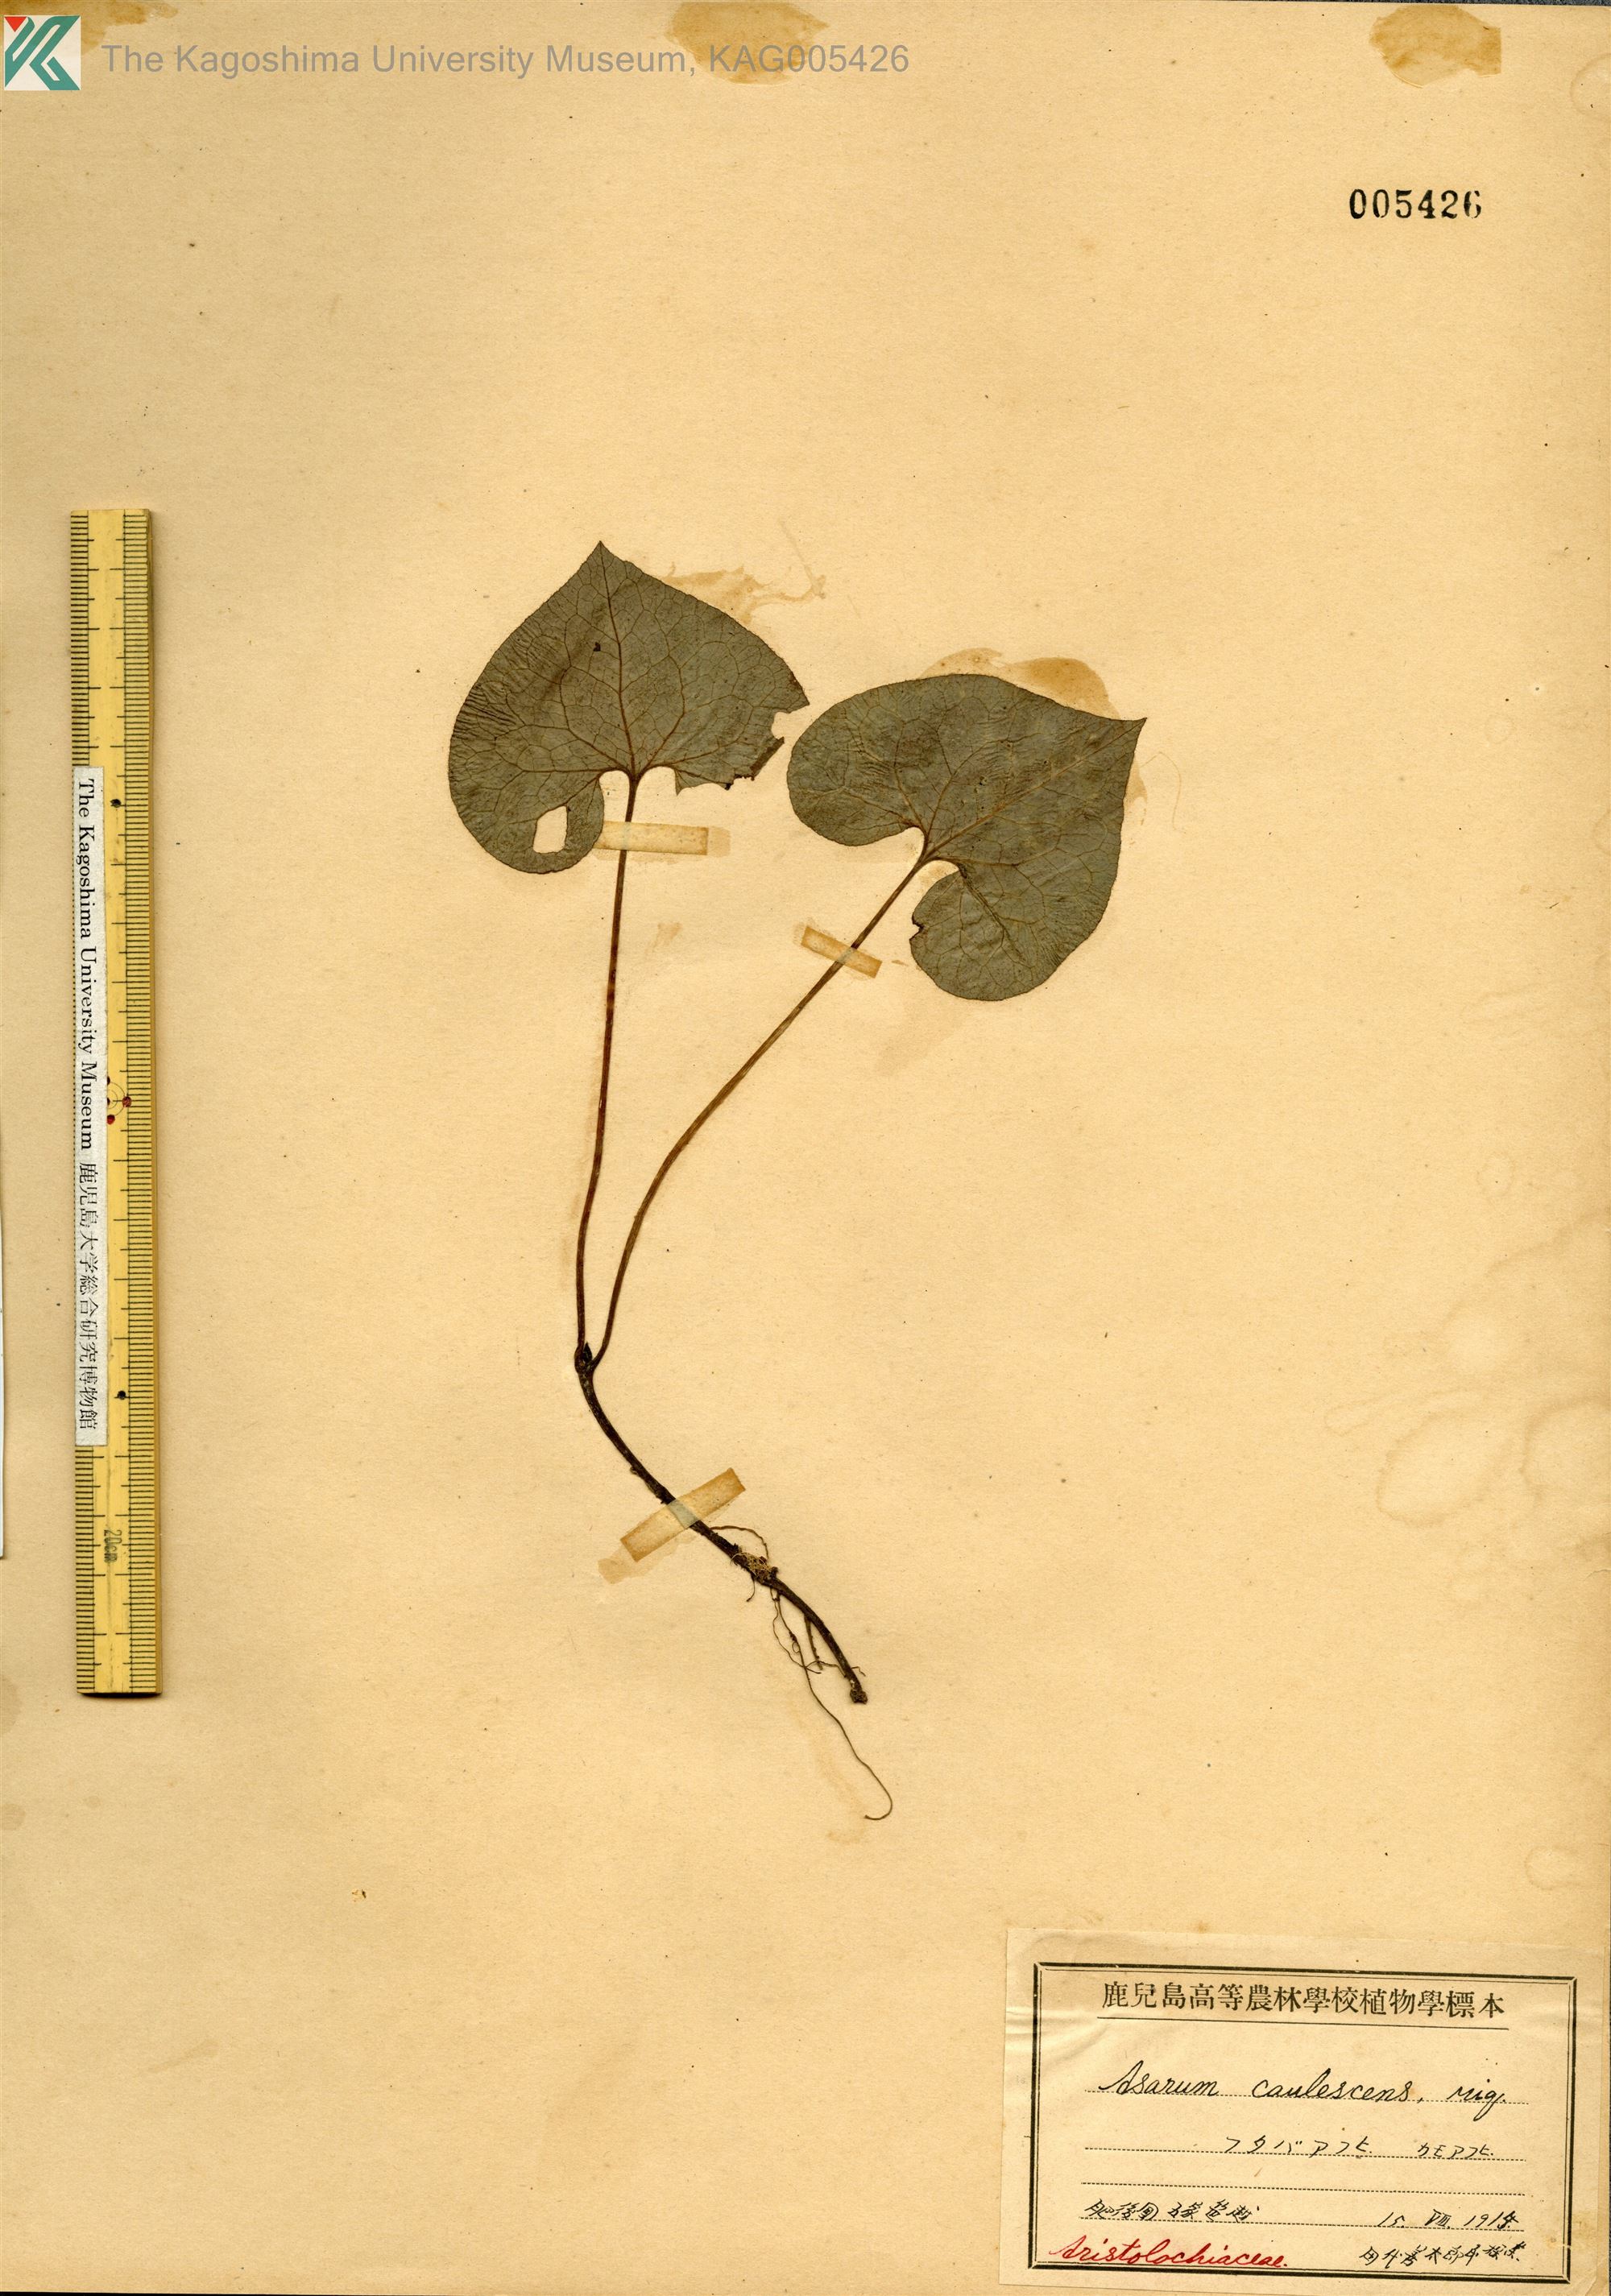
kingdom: Plantae
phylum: Tracheophyta
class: Magnoliopsida
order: Piperales
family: Aristolochiaceae
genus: Asarum
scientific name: Asarum caulescens
